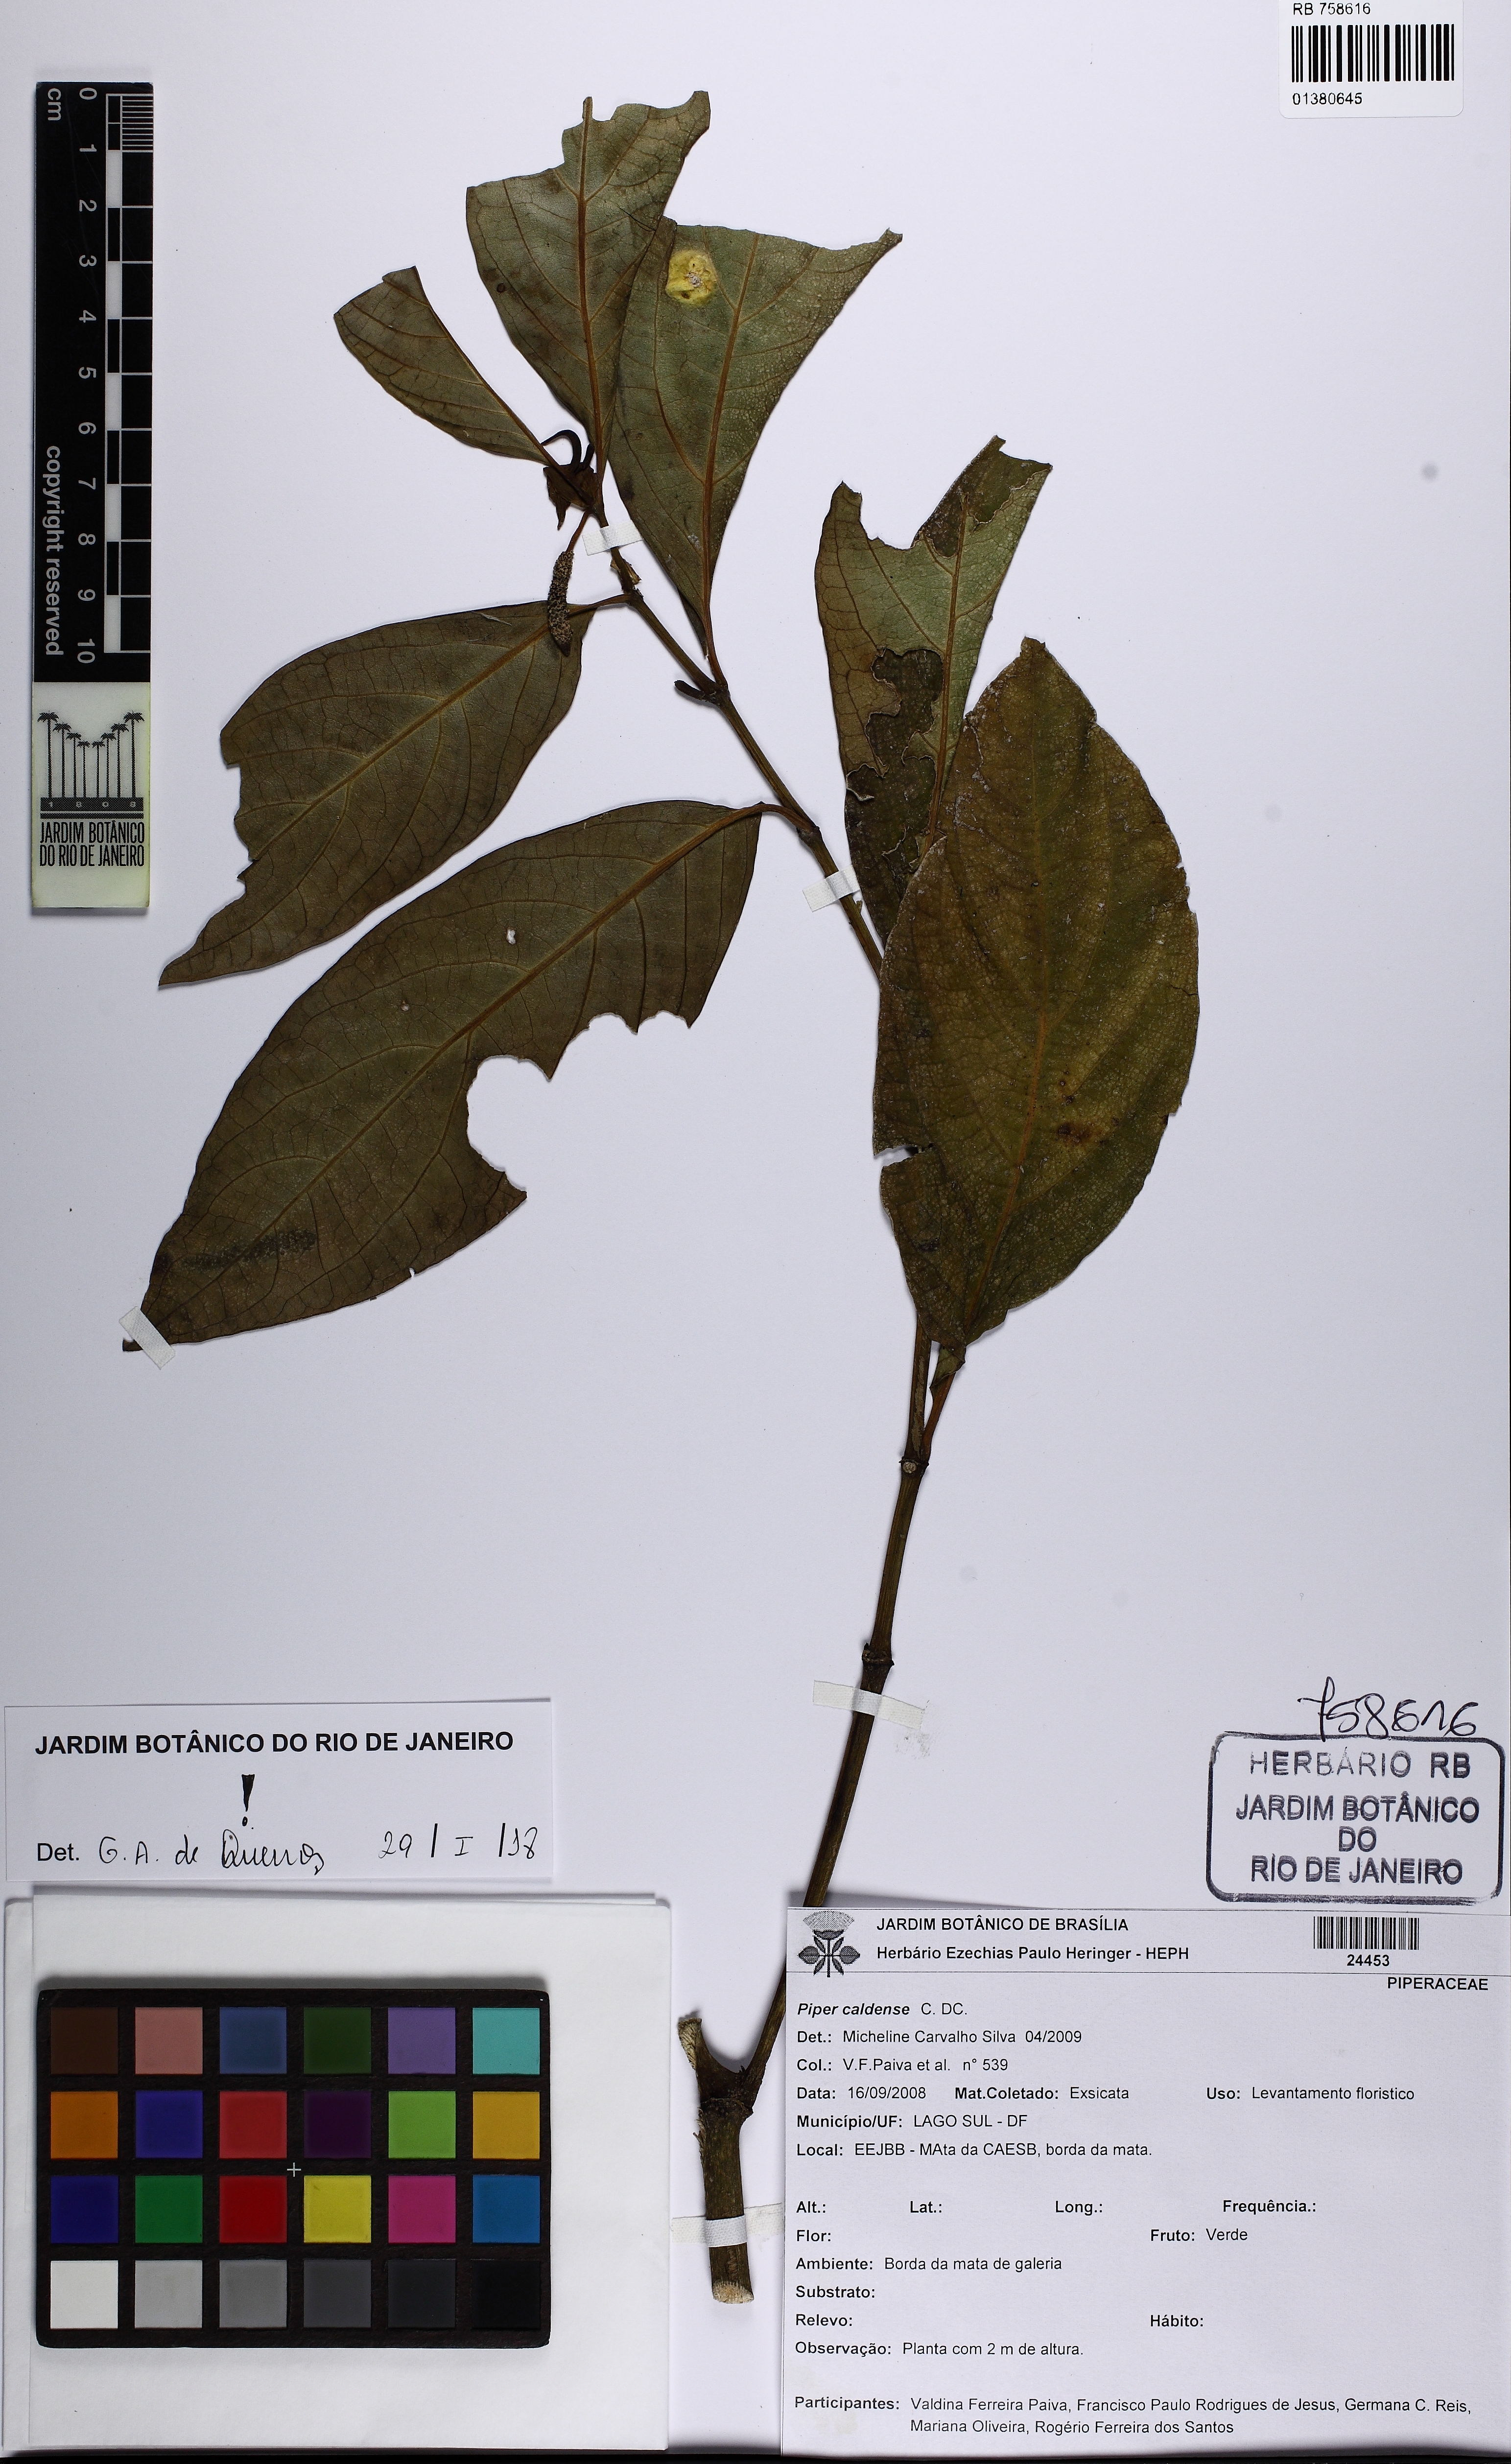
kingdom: Plantae
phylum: Tracheophyta
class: Magnoliopsida
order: Piperales
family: Piperaceae
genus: Piper
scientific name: Piper caldense
